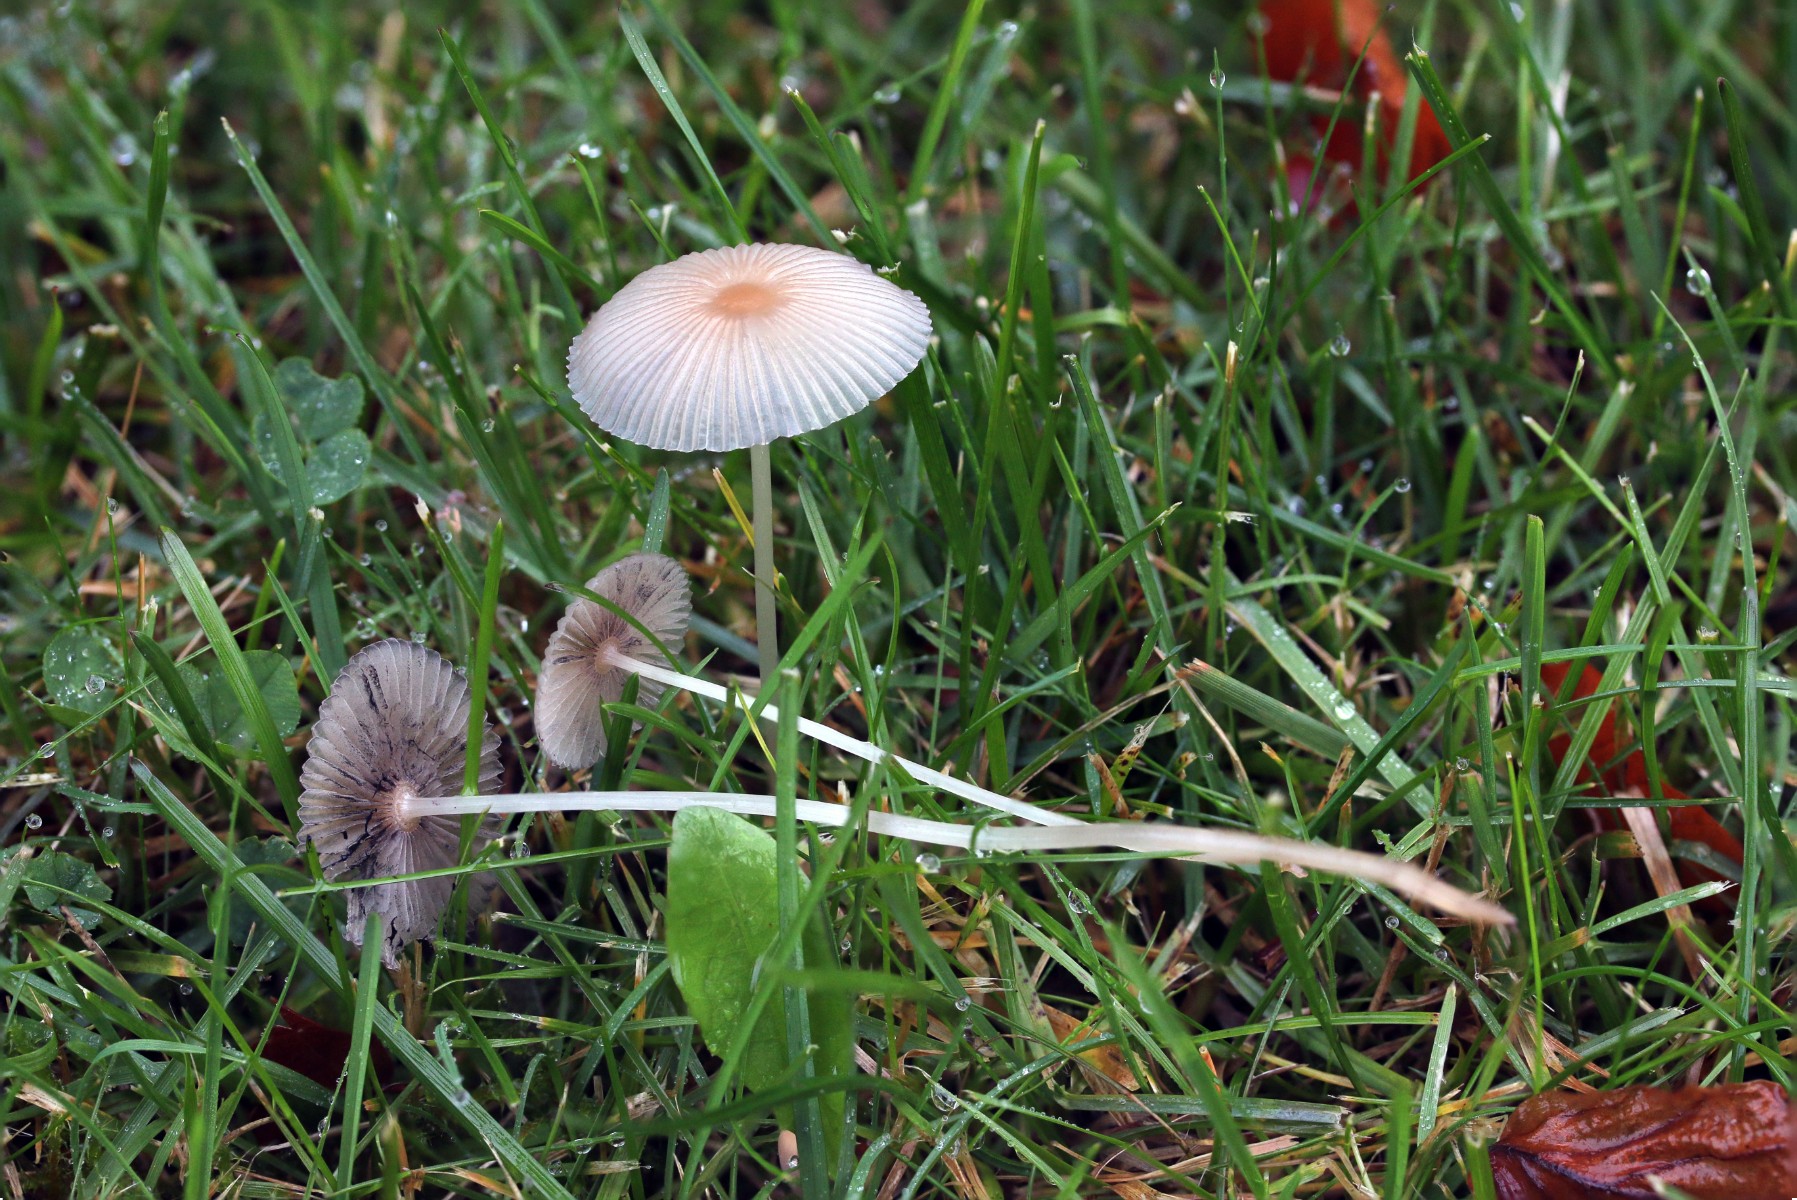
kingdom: Fungi
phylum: Basidiomycota
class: Agaricomycetes
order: Agaricales
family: Psathyrellaceae
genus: Parasola
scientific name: Parasola plicatilis
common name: plæne-hjulhat
